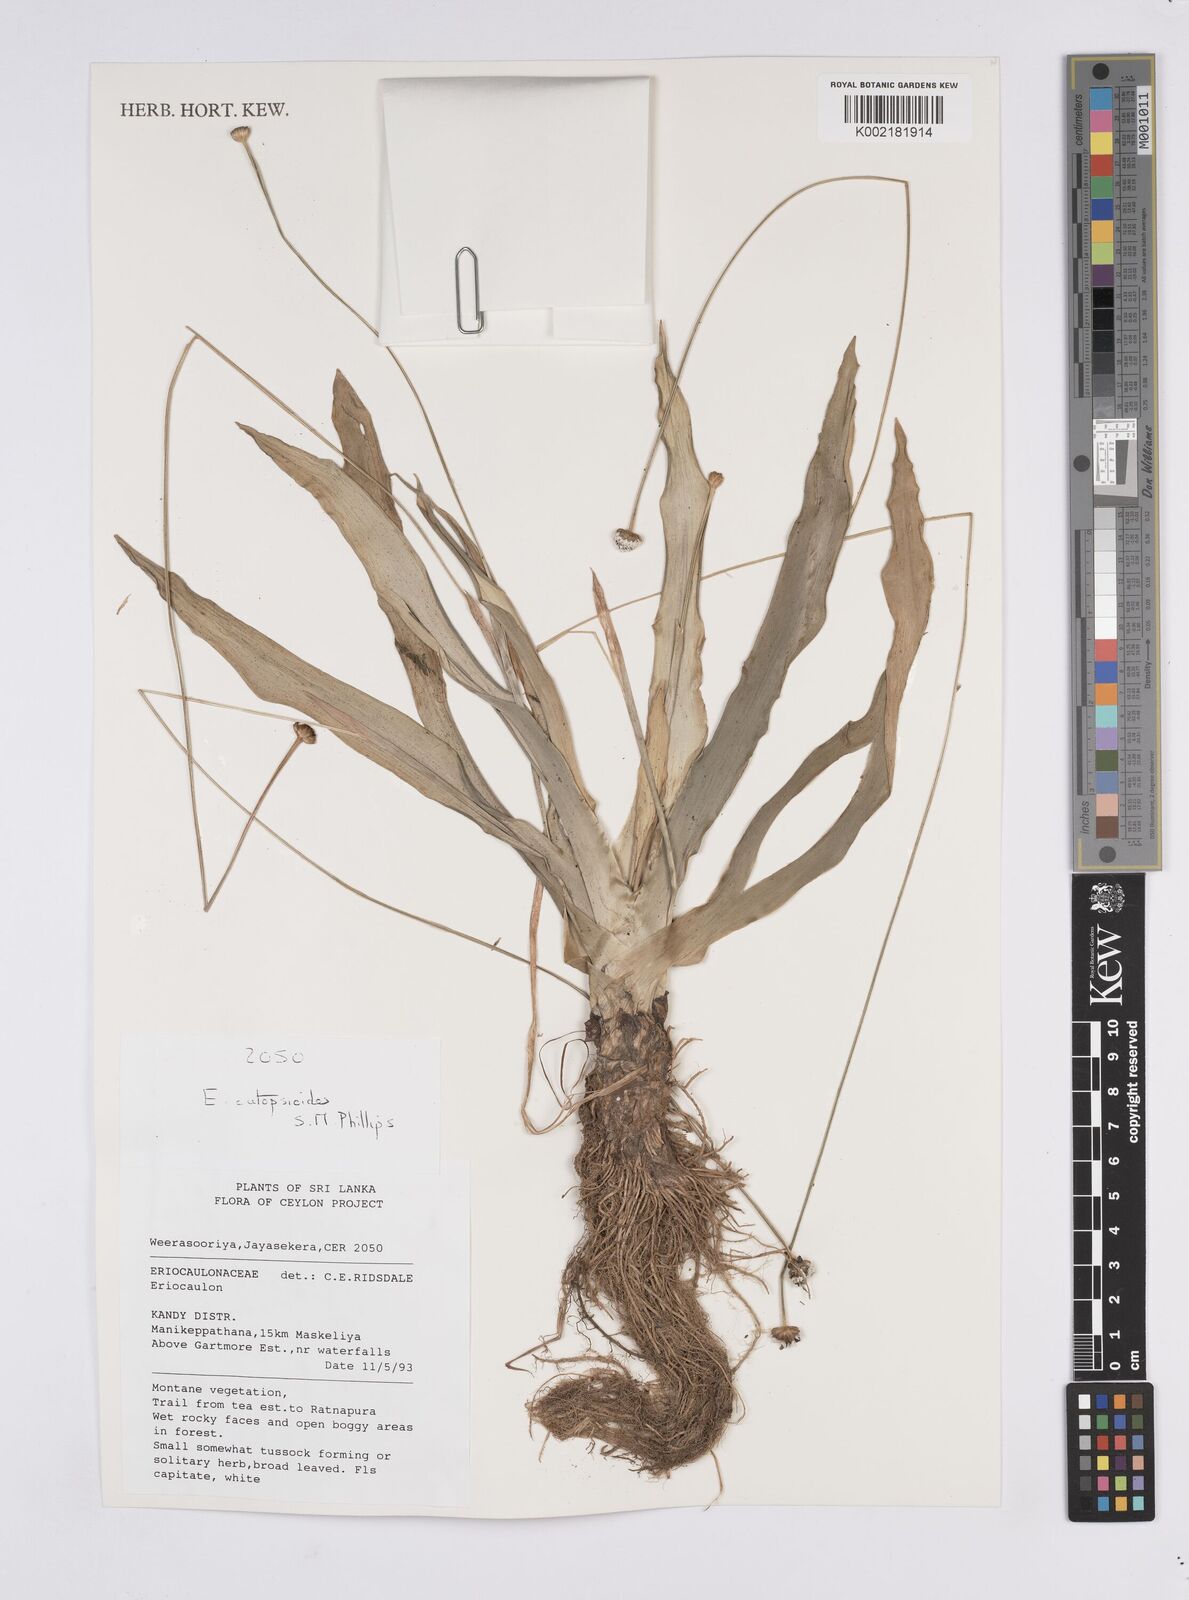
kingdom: Plantae
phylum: Tracheophyta
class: Liliopsida
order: Poales
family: Eriocaulaceae
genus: Eriocaulon
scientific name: Eriocaulon catopsioides
